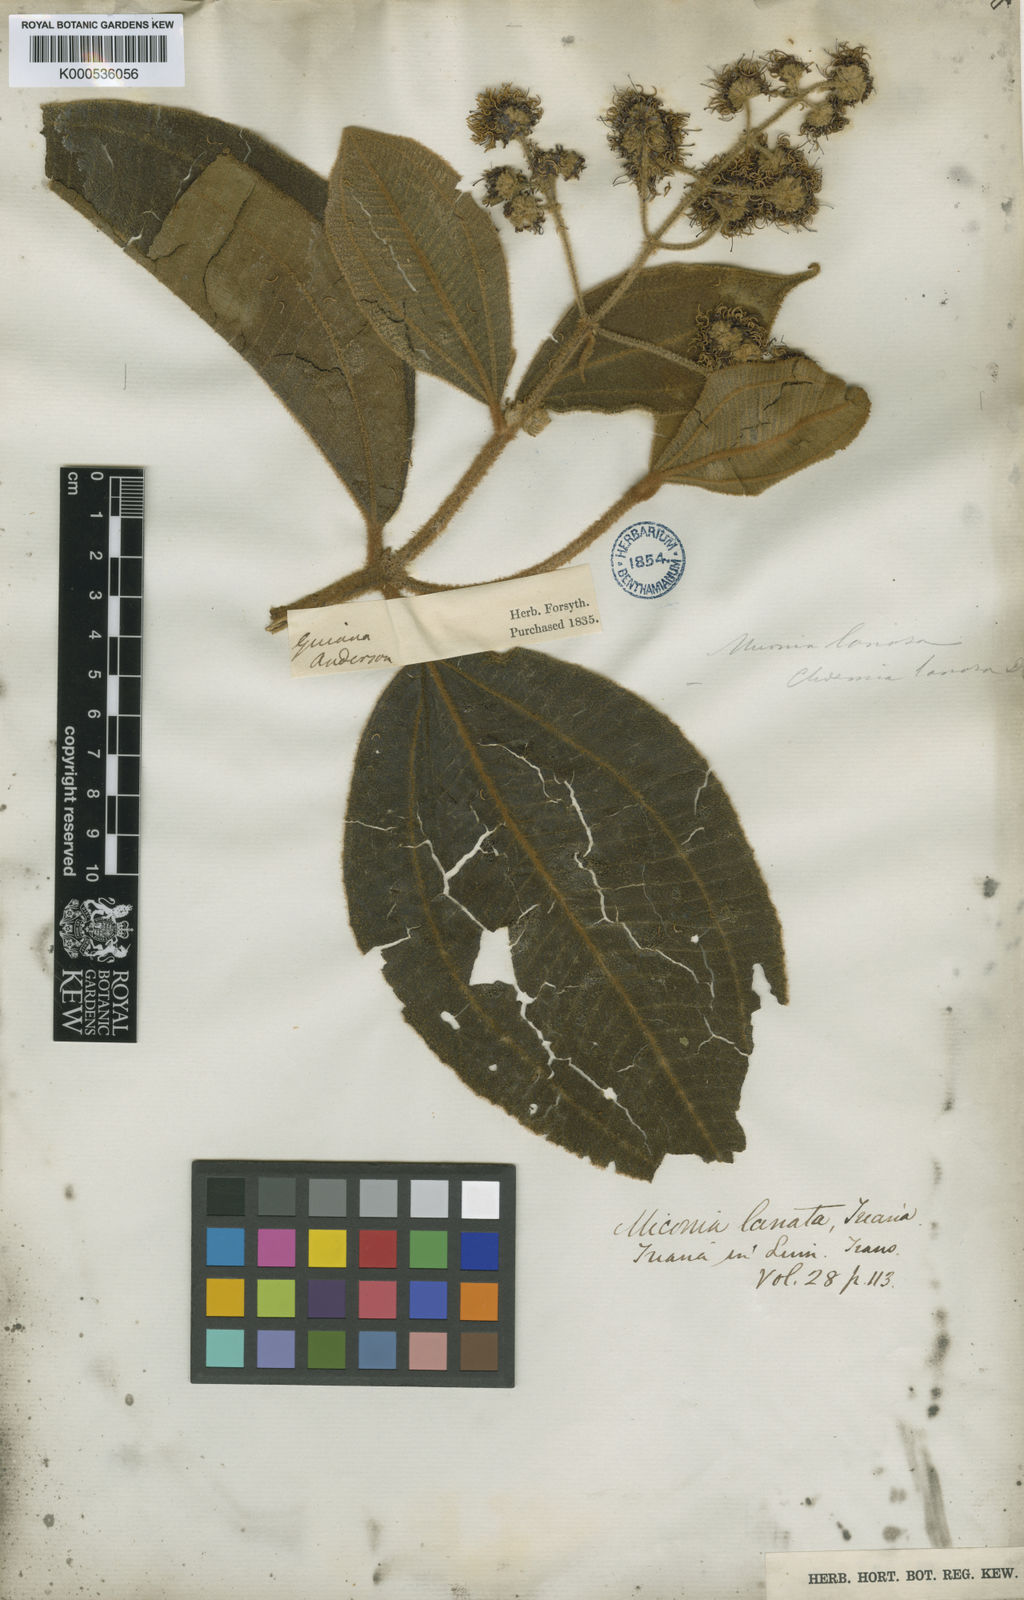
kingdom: Plantae
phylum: Tracheophyta
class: Magnoliopsida
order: Myrtales
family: Melastomataceae
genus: Miconia
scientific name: Miconia lanata
